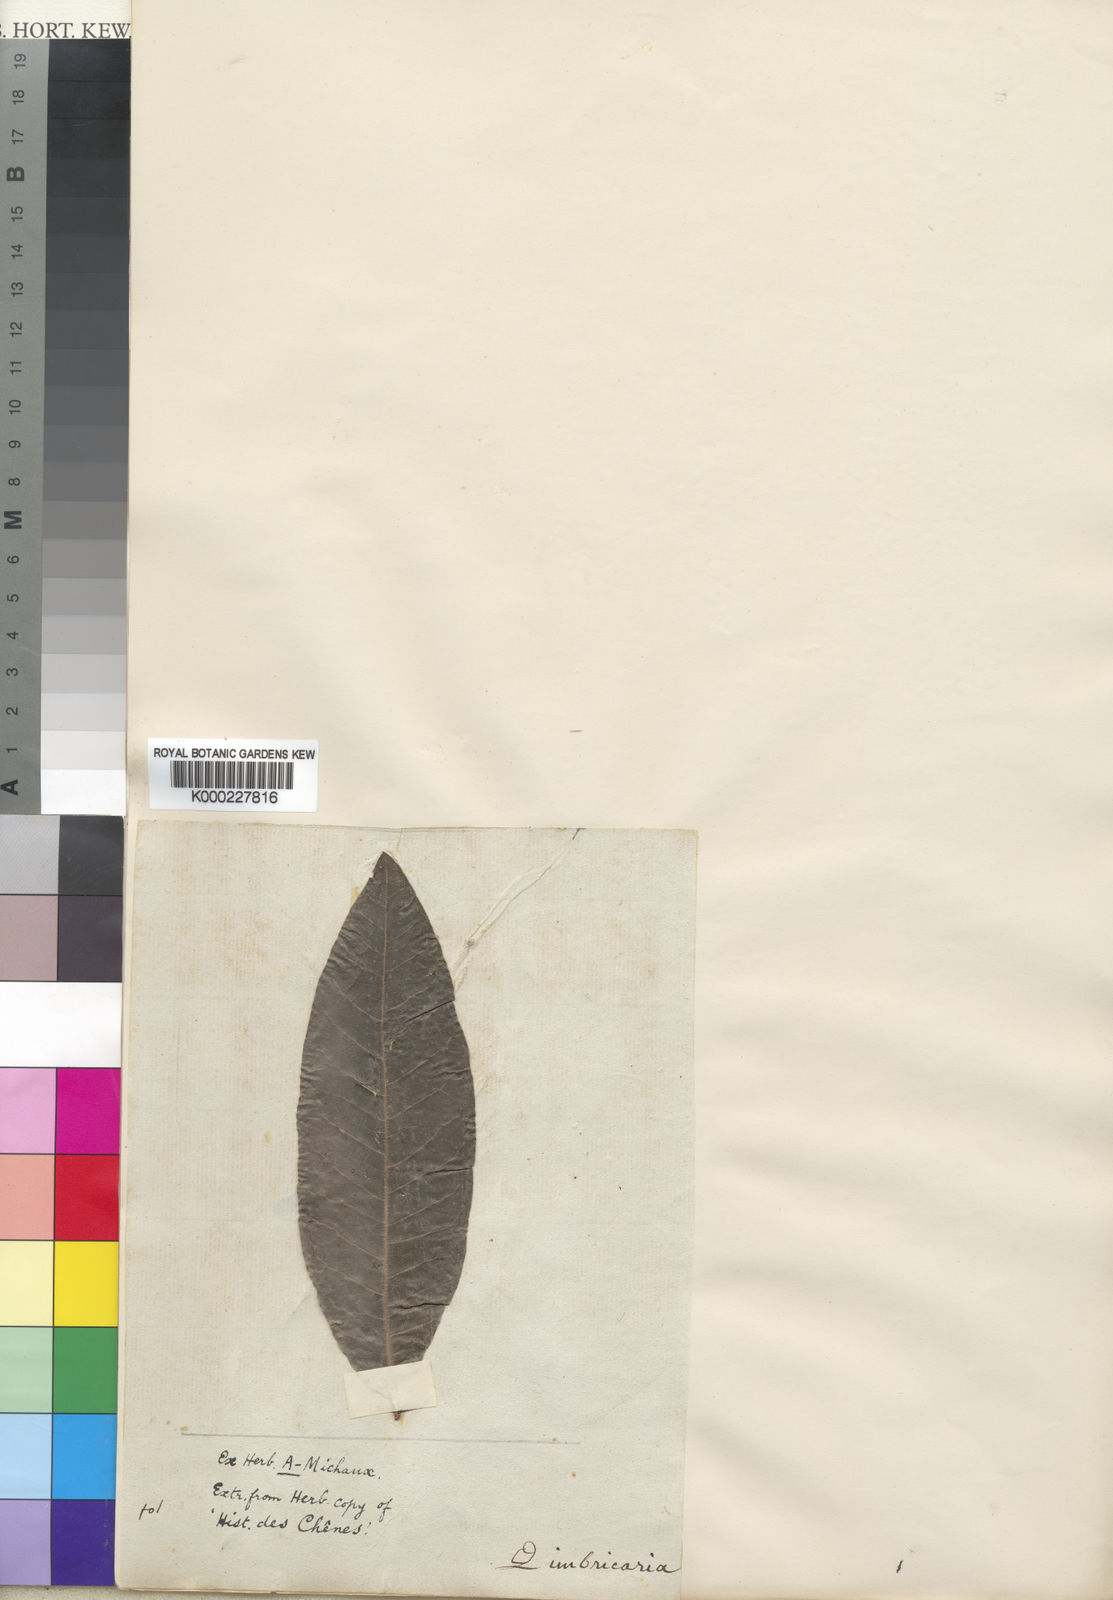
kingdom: Plantae
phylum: Tracheophyta
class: Magnoliopsida
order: Fagales
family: Fagaceae
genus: Quercus
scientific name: Quercus imbricaria
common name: Shingle oak
